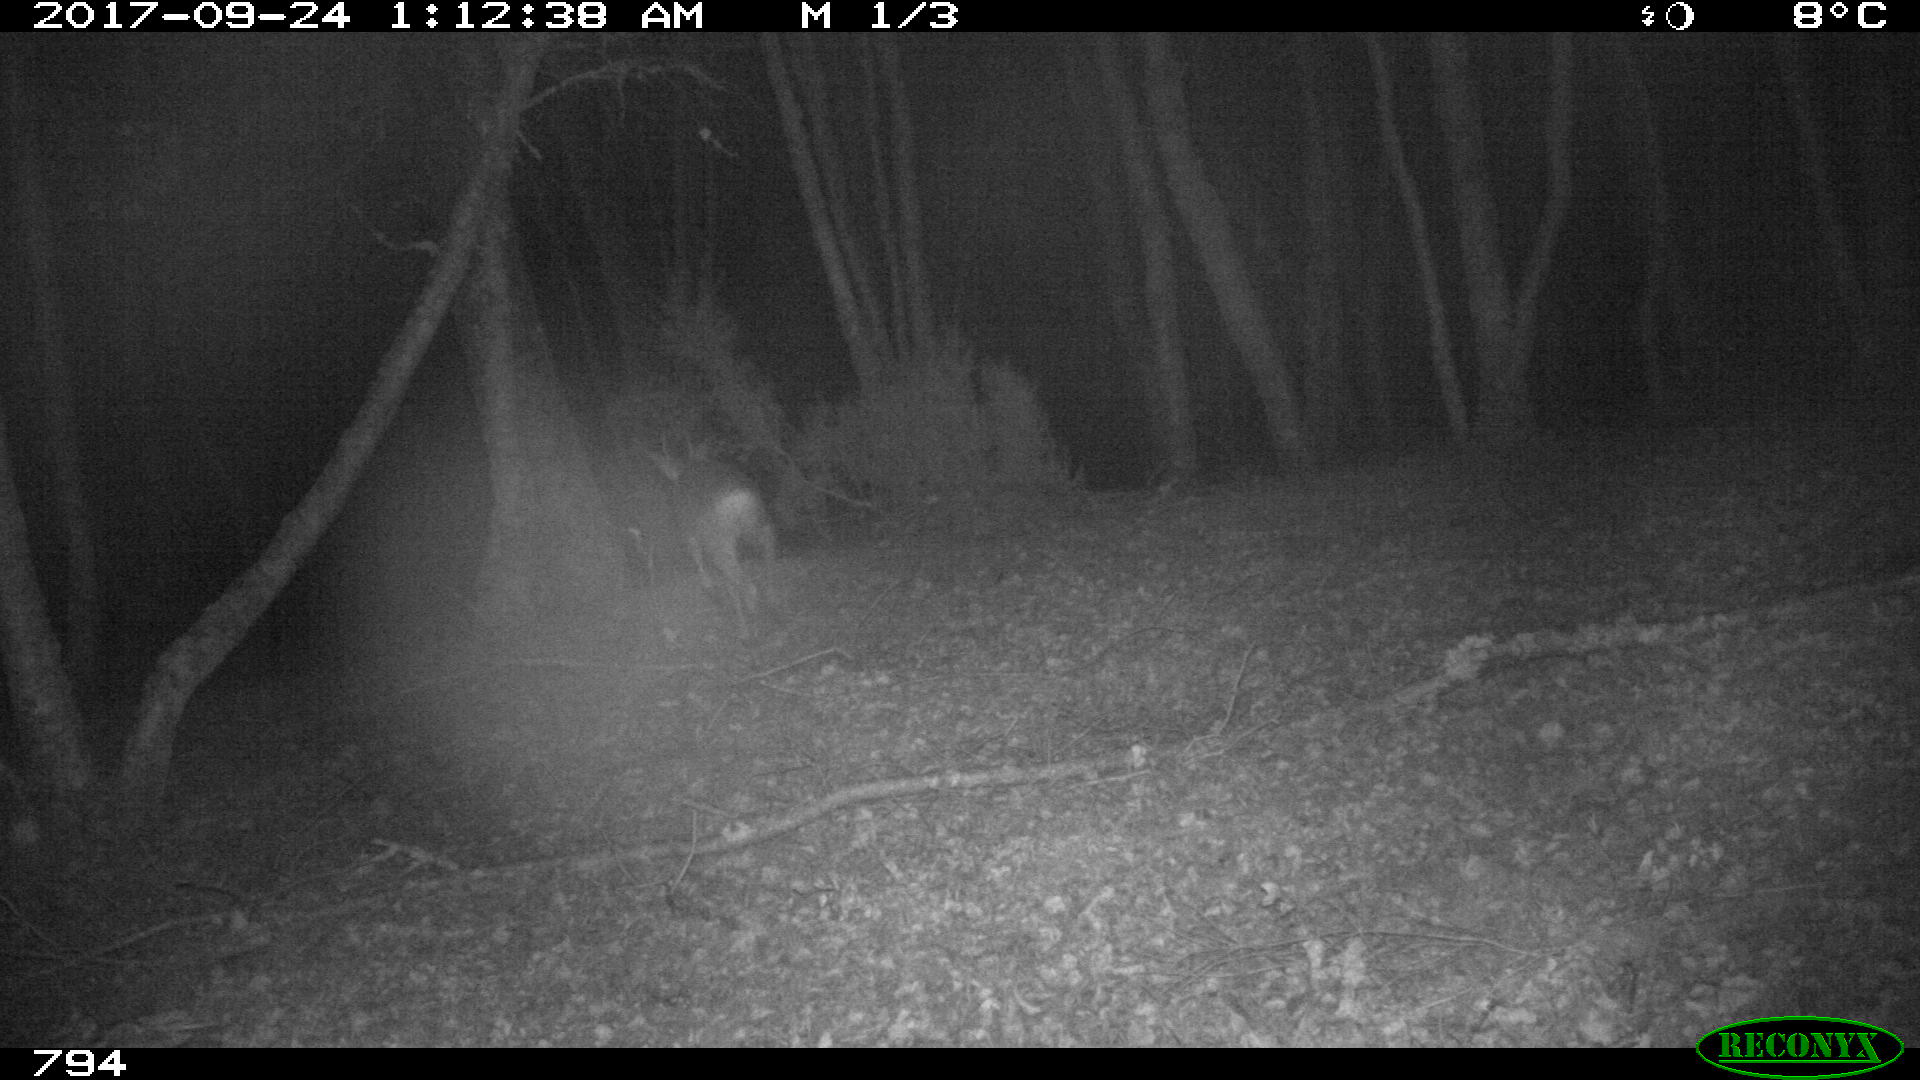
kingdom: Animalia
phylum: Chordata
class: Mammalia
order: Artiodactyla
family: Cervidae
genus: Capreolus
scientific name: Capreolus capreolus
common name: Western roe deer
